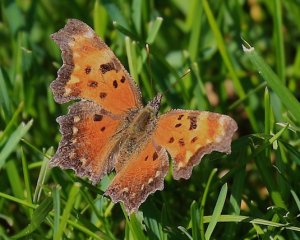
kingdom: Animalia
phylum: Arthropoda
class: Insecta
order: Lepidoptera
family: Nymphalidae
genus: Polygonia
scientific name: Polygonia comma
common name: Eastern Comma
